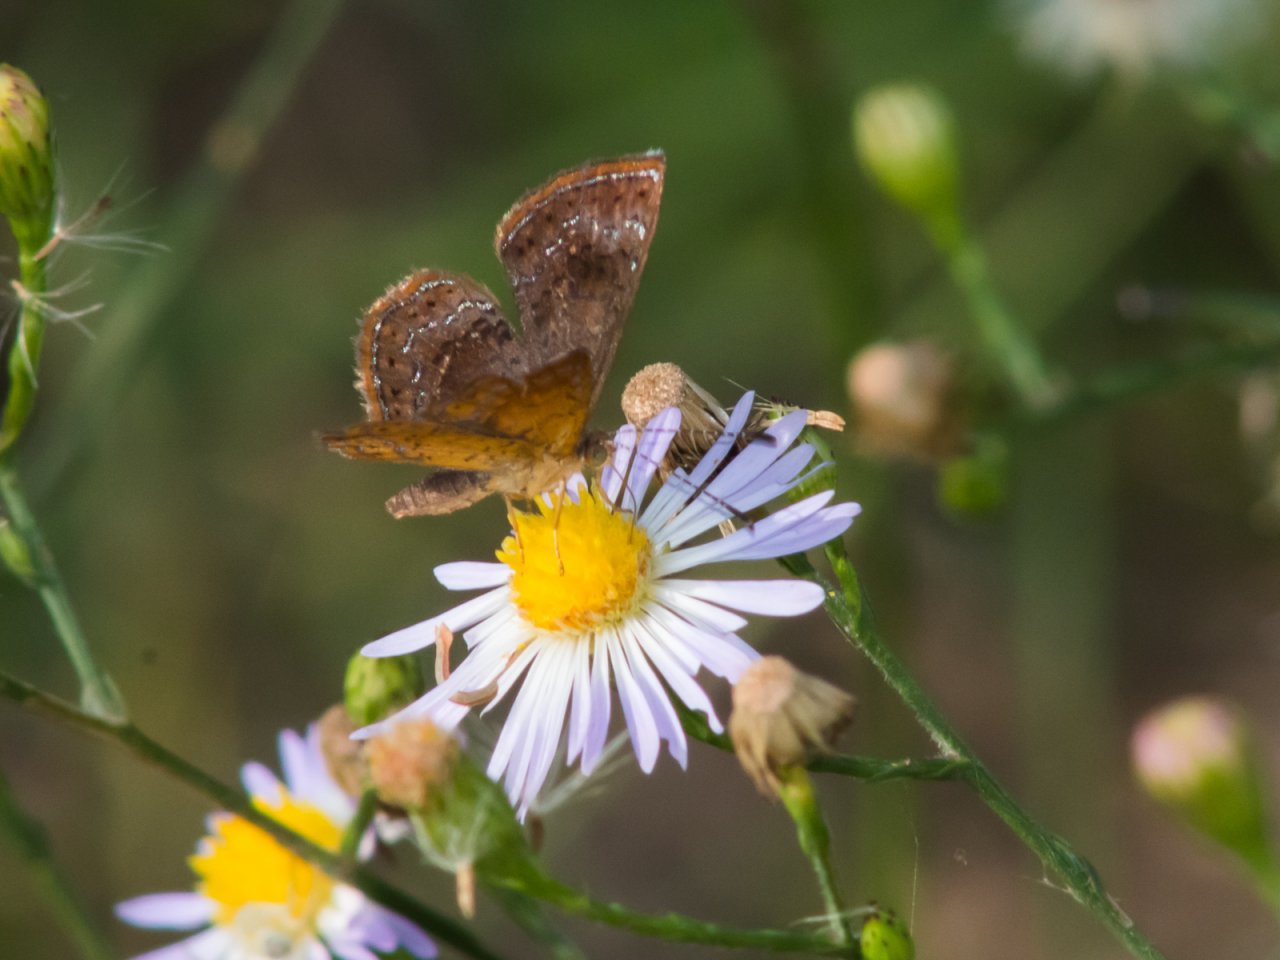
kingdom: Animalia
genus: Calephelis
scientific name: Calephelis perditalis
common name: Rounded Metalmark
